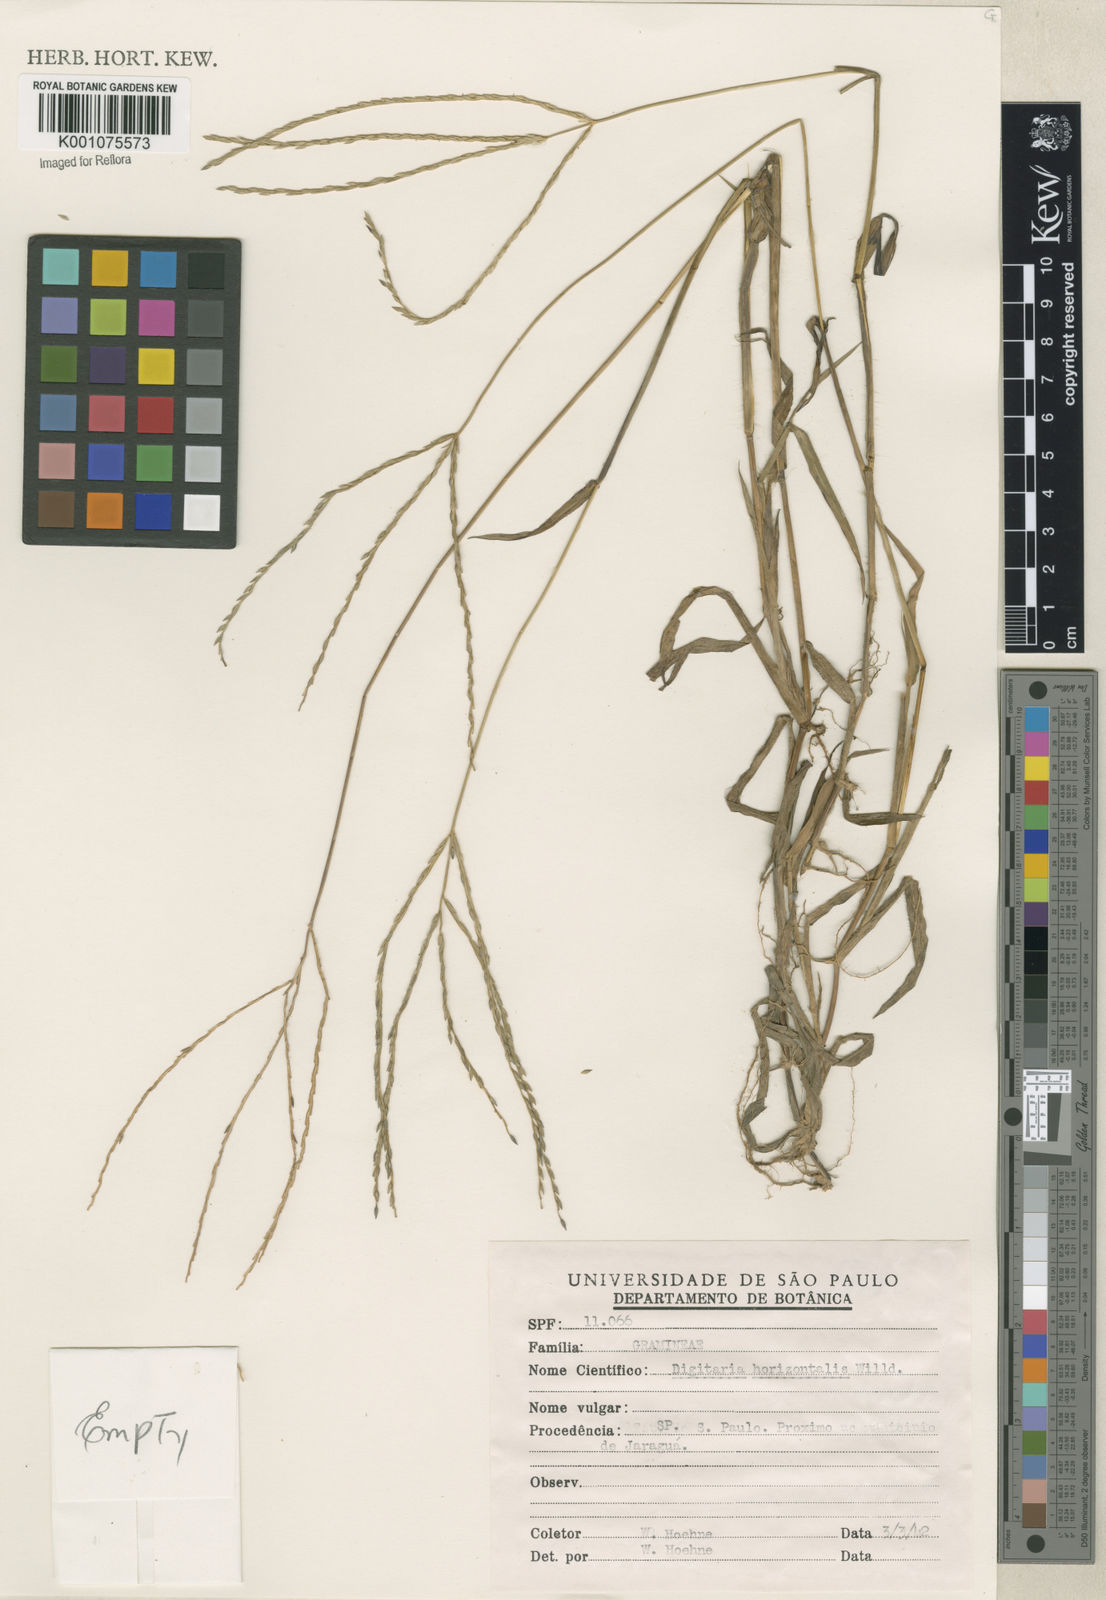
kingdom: Plantae
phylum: Tracheophyta
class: Liliopsida
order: Poales
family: Poaceae
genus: Digitaria
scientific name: Digitaria ciliaris
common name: Tropical finger-grass
